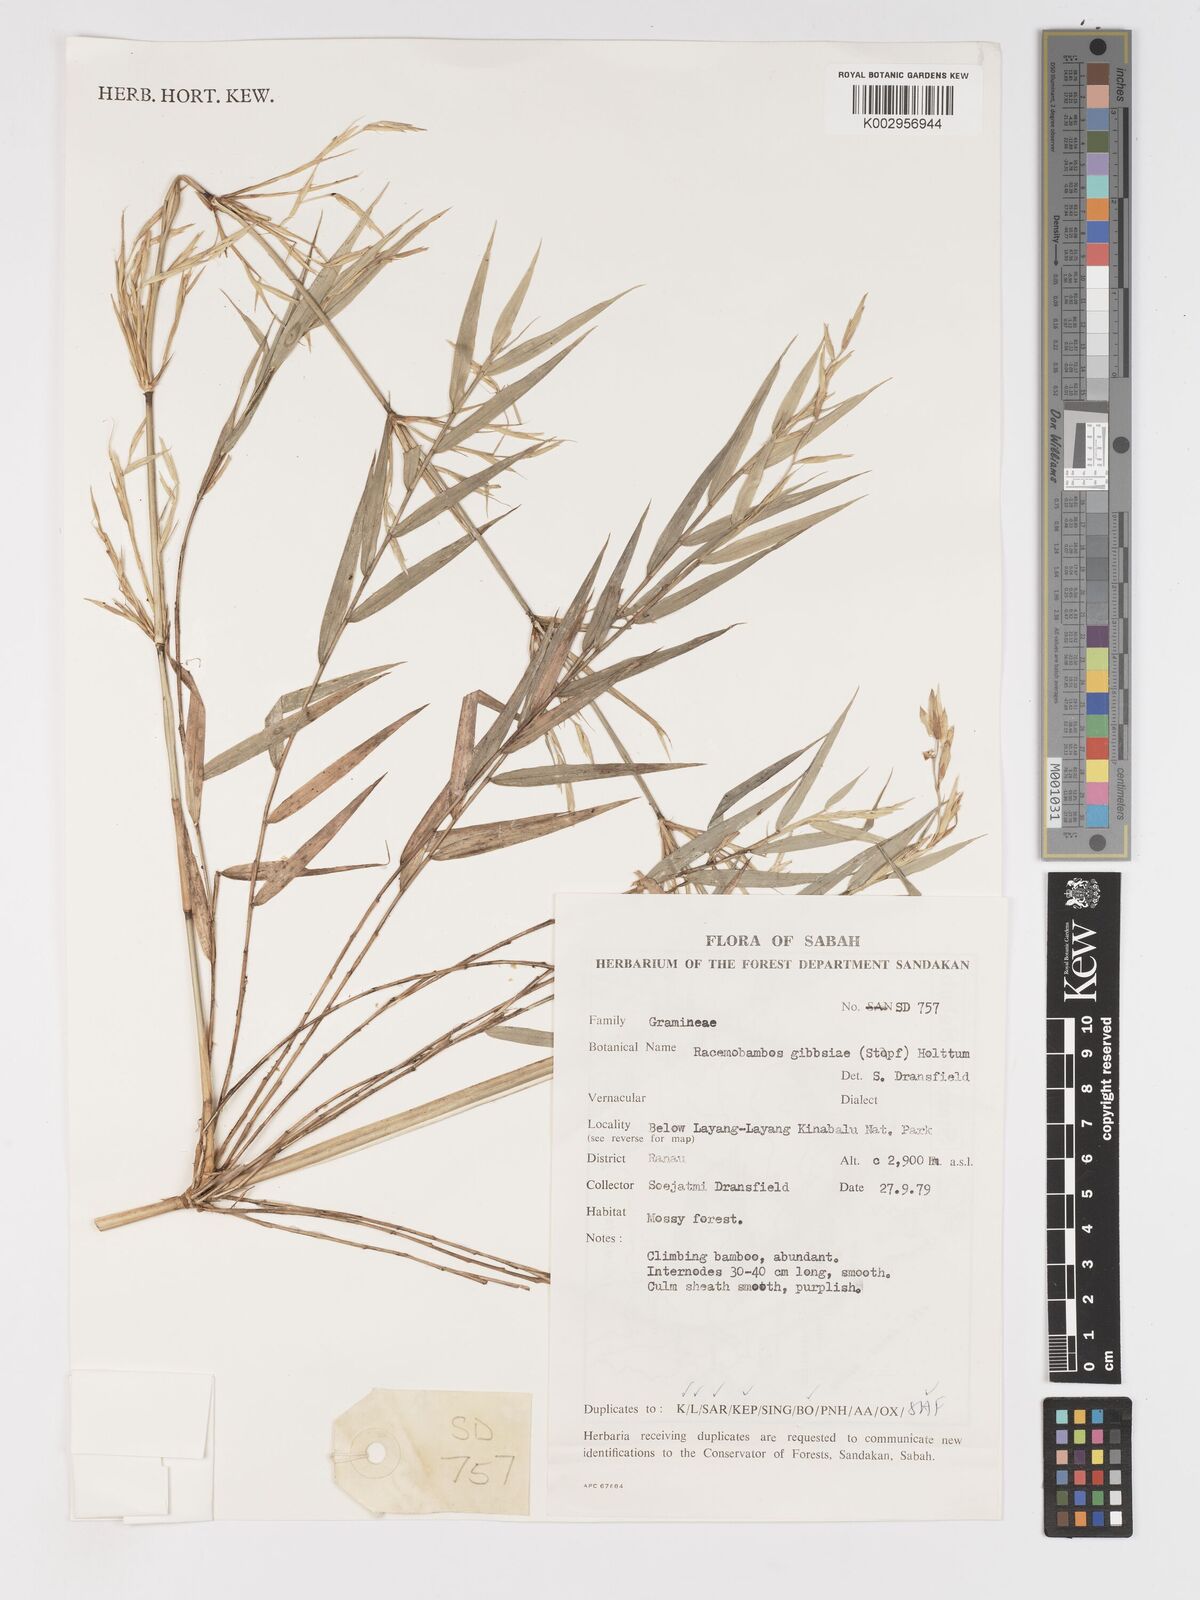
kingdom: Plantae
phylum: Tracheophyta
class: Liliopsida
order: Poales
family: Poaceae
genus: Racemobambos
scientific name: Racemobambos gibbsiae
